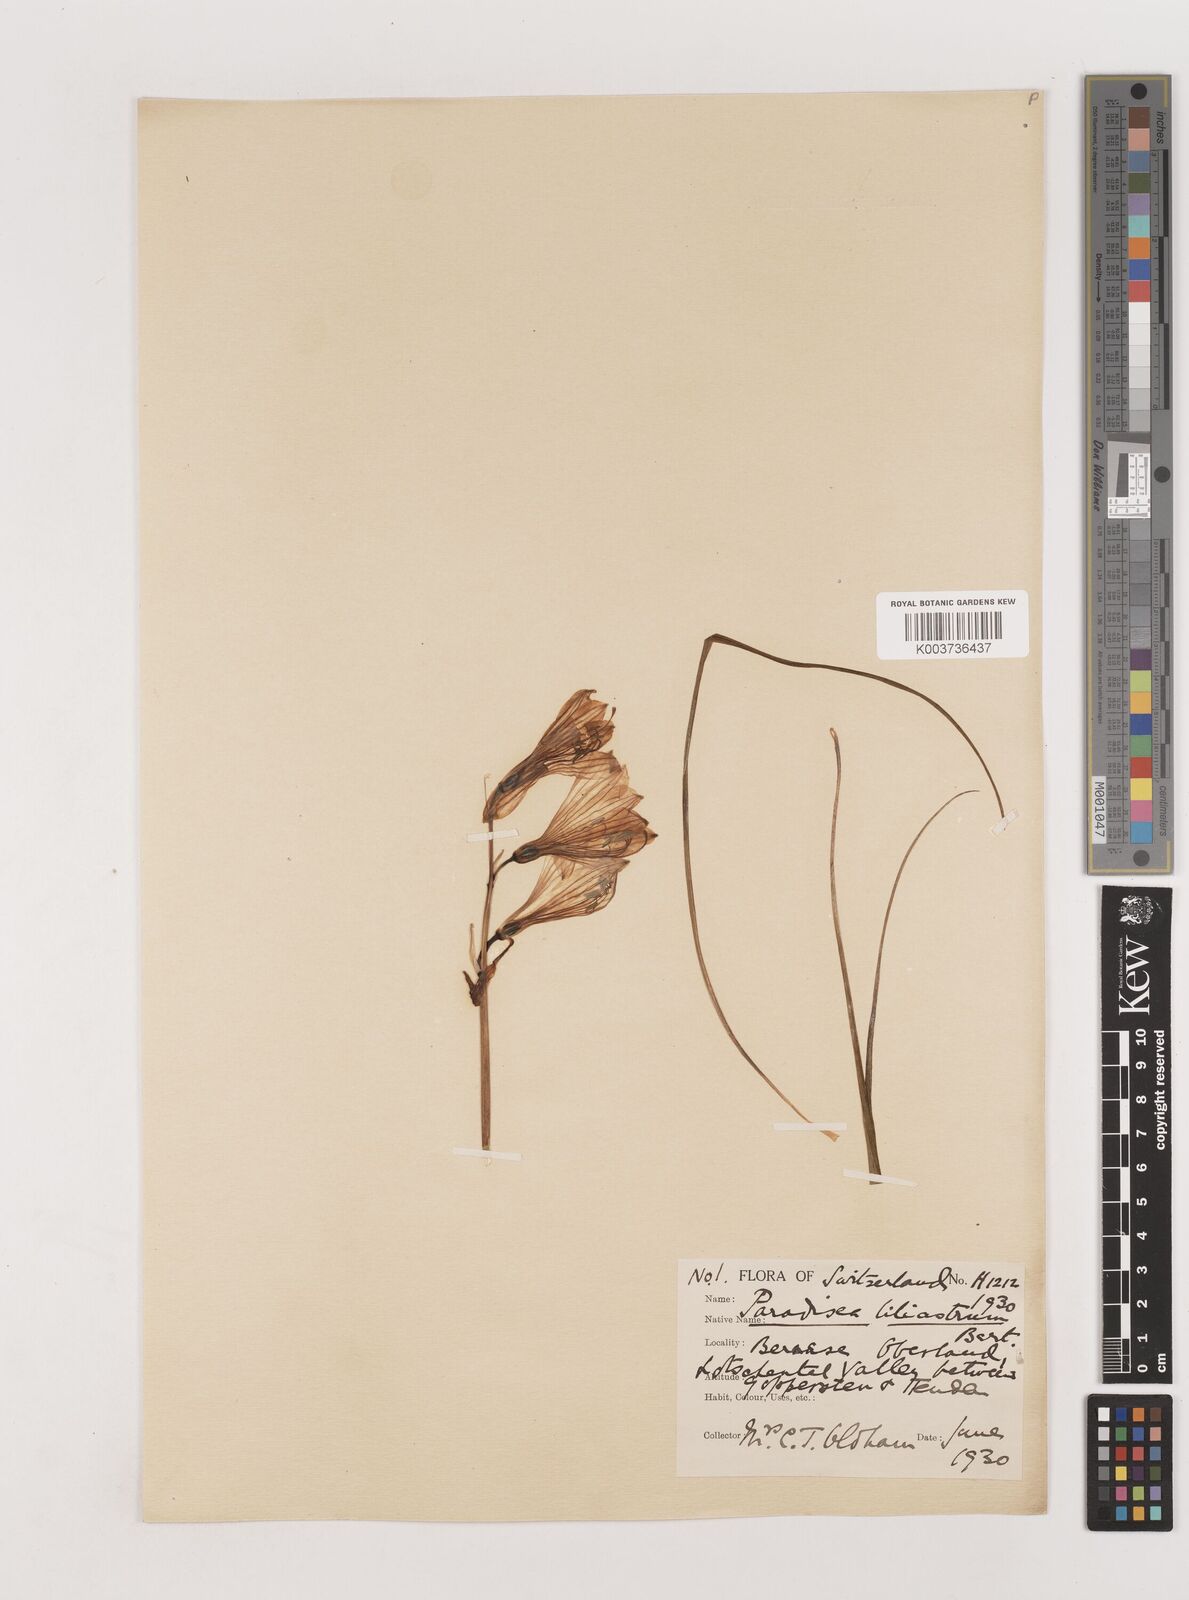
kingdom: Plantae
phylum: Tracheophyta
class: Liliopsida
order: Asparagales
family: Asparagaceae
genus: Paradisea
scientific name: Paradisea liliastrum
